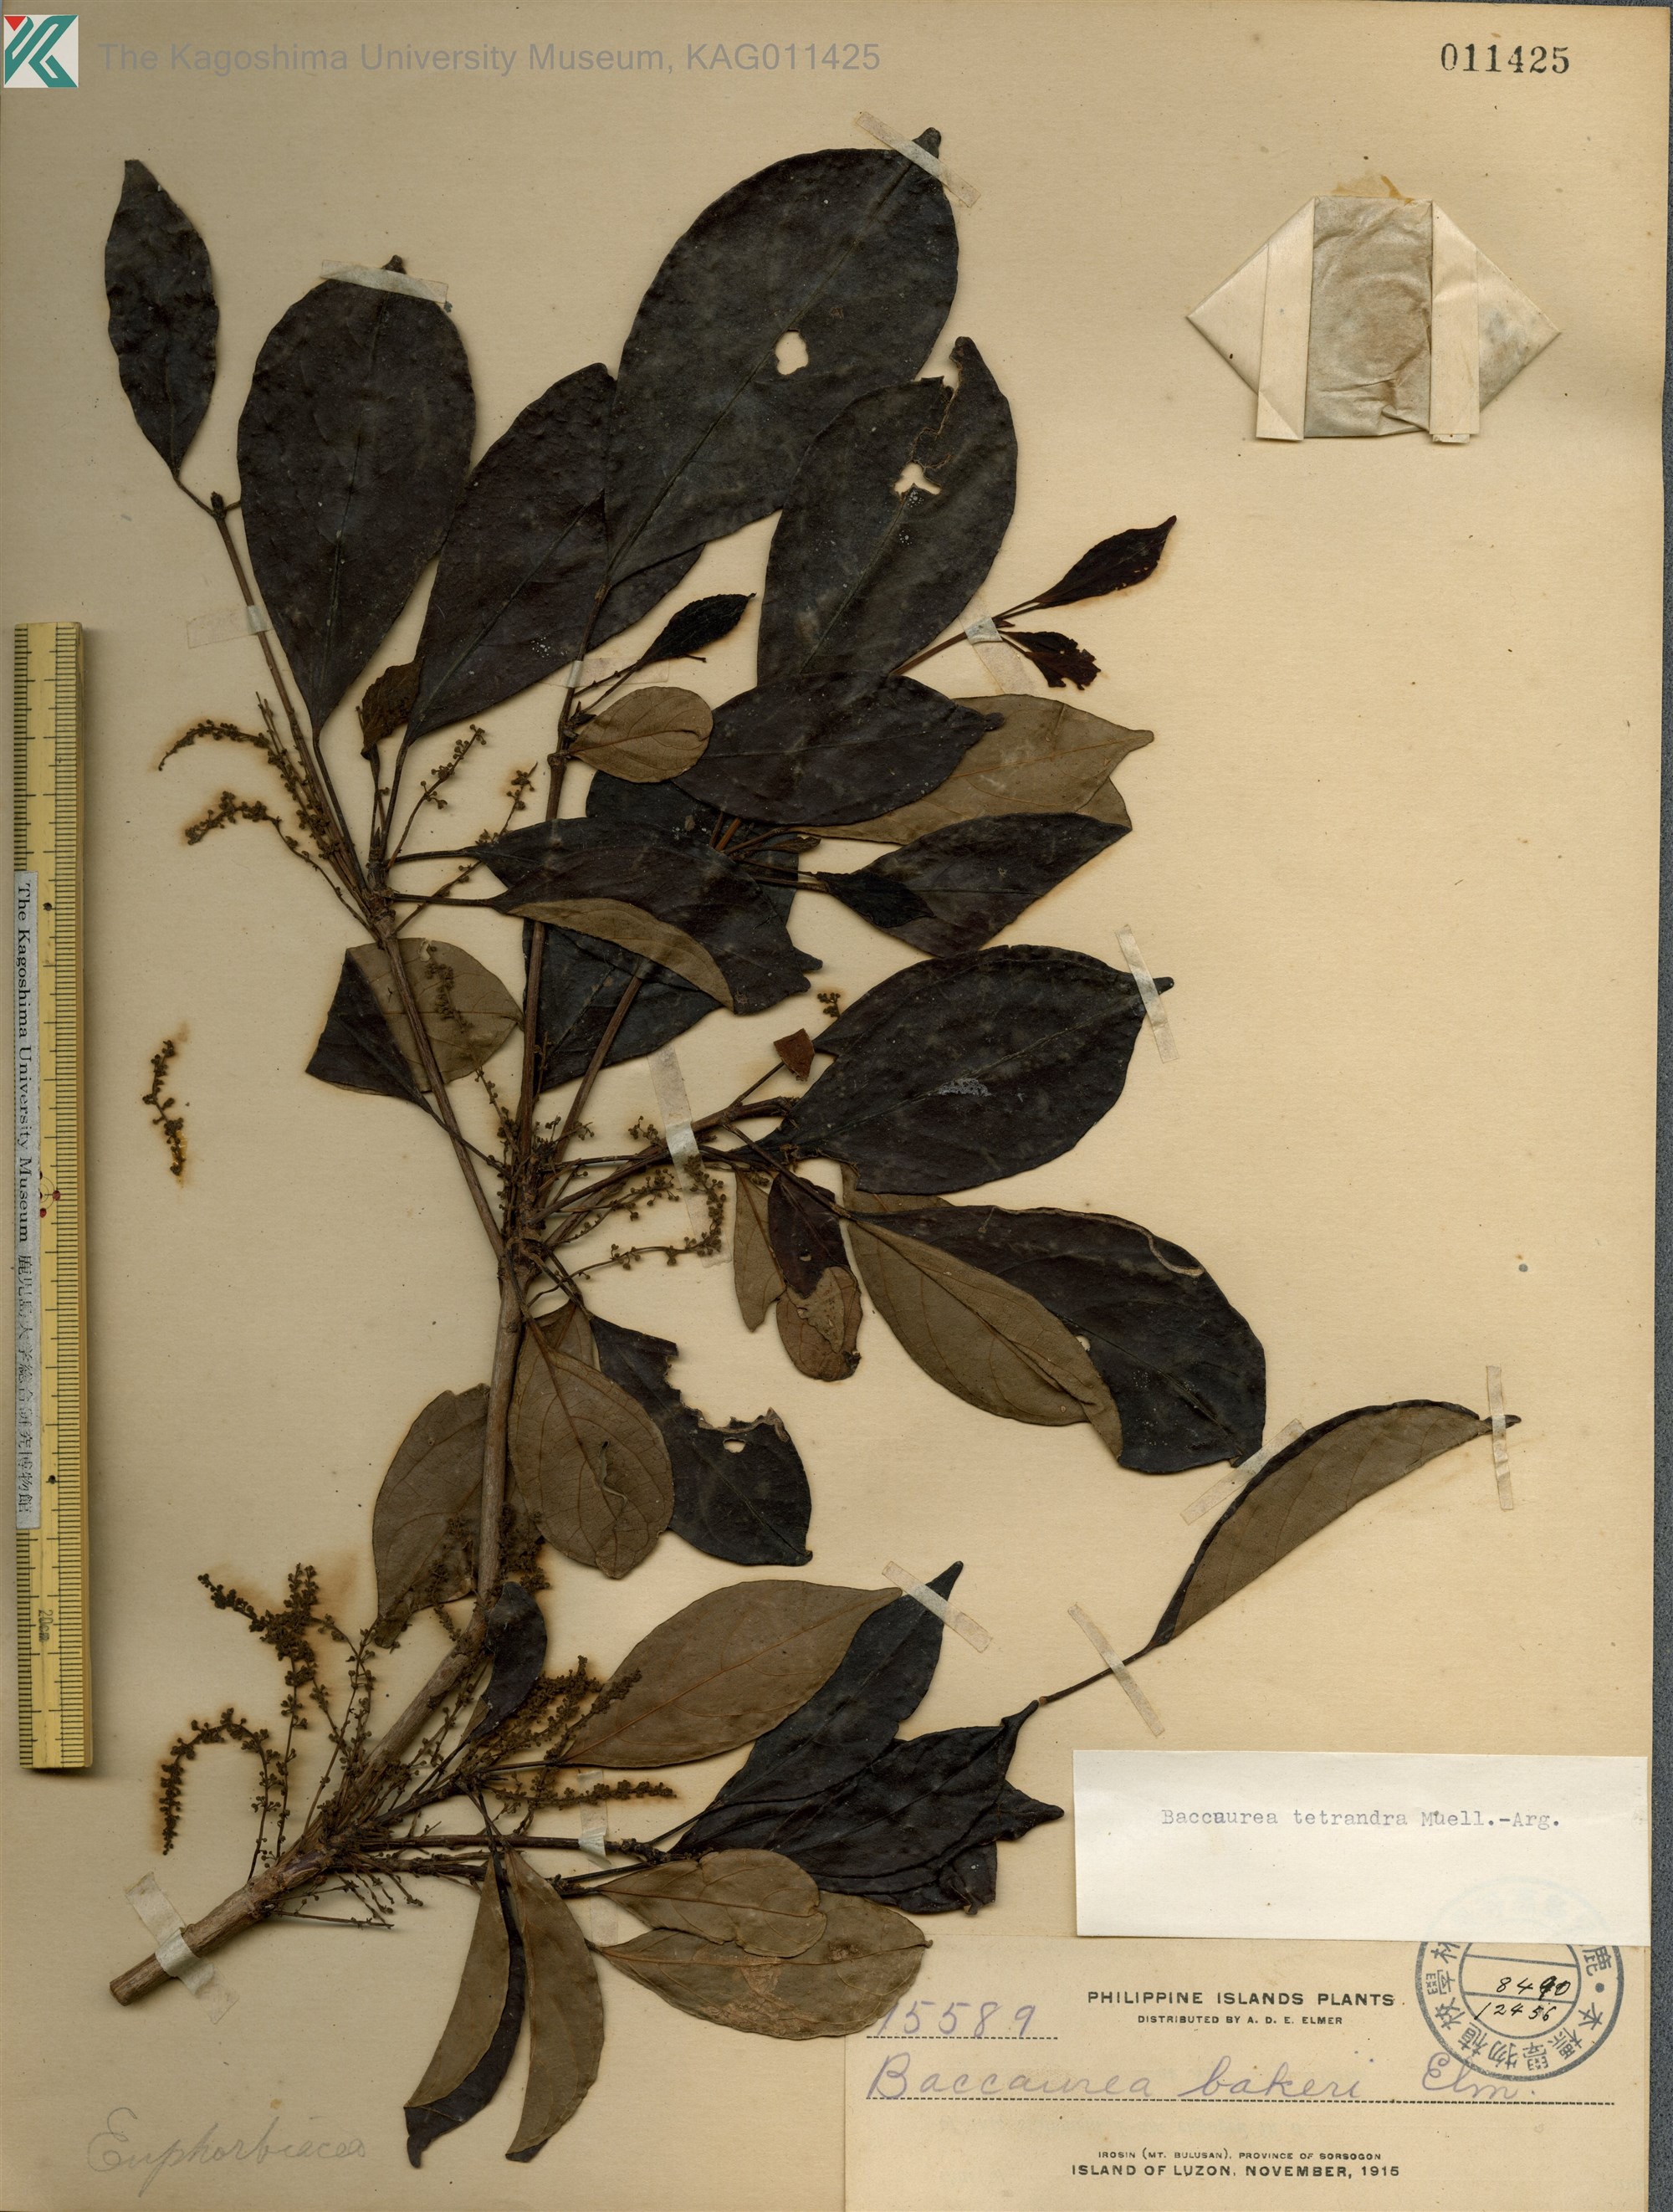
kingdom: Plantae
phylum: Tracheophyta
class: Magnoliopsida
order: Malpighiales
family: Phyllanthaceae
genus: Baccaurea
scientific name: Baccaurea tetrandra
